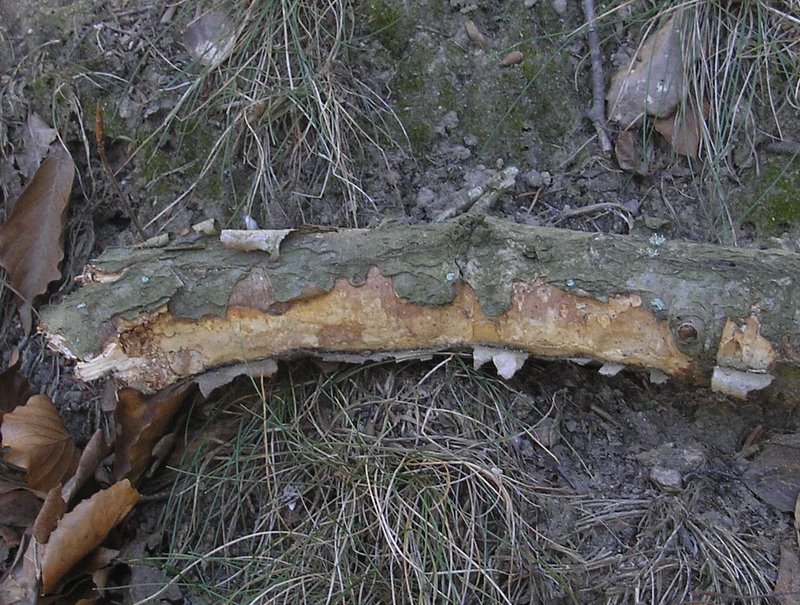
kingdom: Fungi
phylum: Basidiomycota
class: Agaricomycetes
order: Corticiales
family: Vuilleminiaceae
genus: Vuilleminia
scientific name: Vuilleminia comedens
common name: almindelig barksprænger
